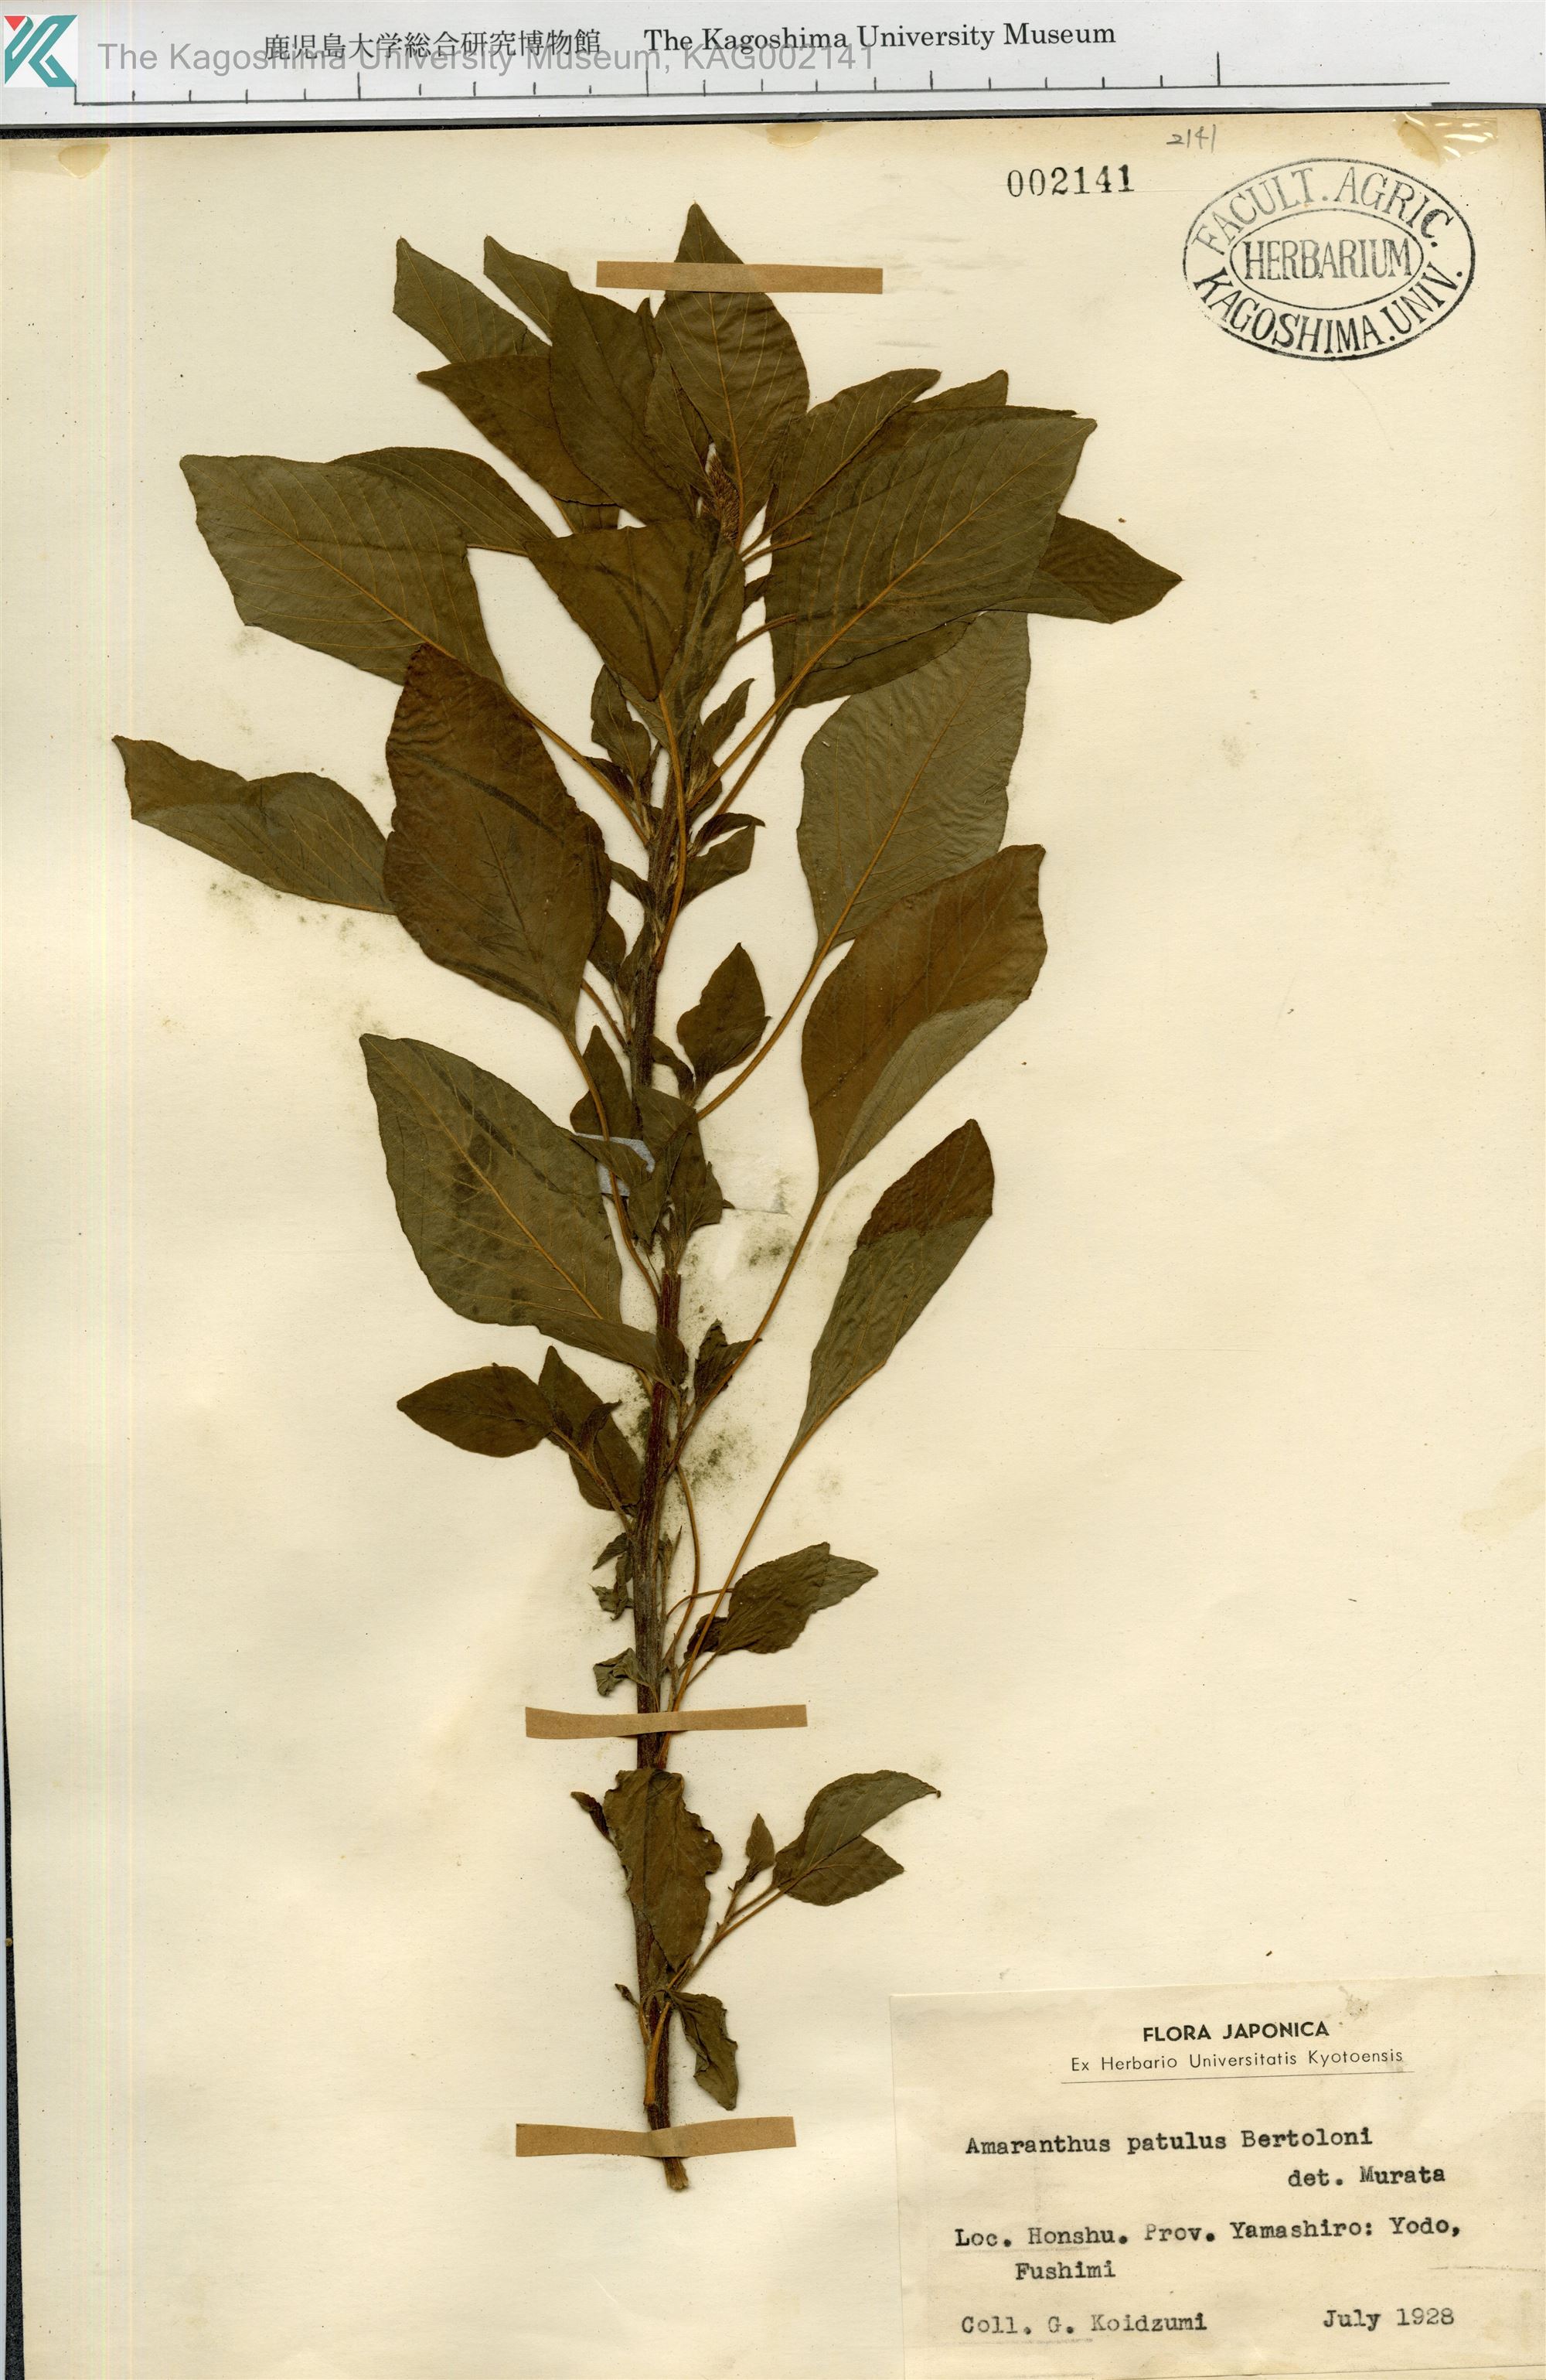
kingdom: Plantae
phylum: Tracheophyta
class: Magnoliopsida
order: Caryophyllales
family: Amaranthaceae
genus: Amaranthus
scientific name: Amaranthus hybridus
